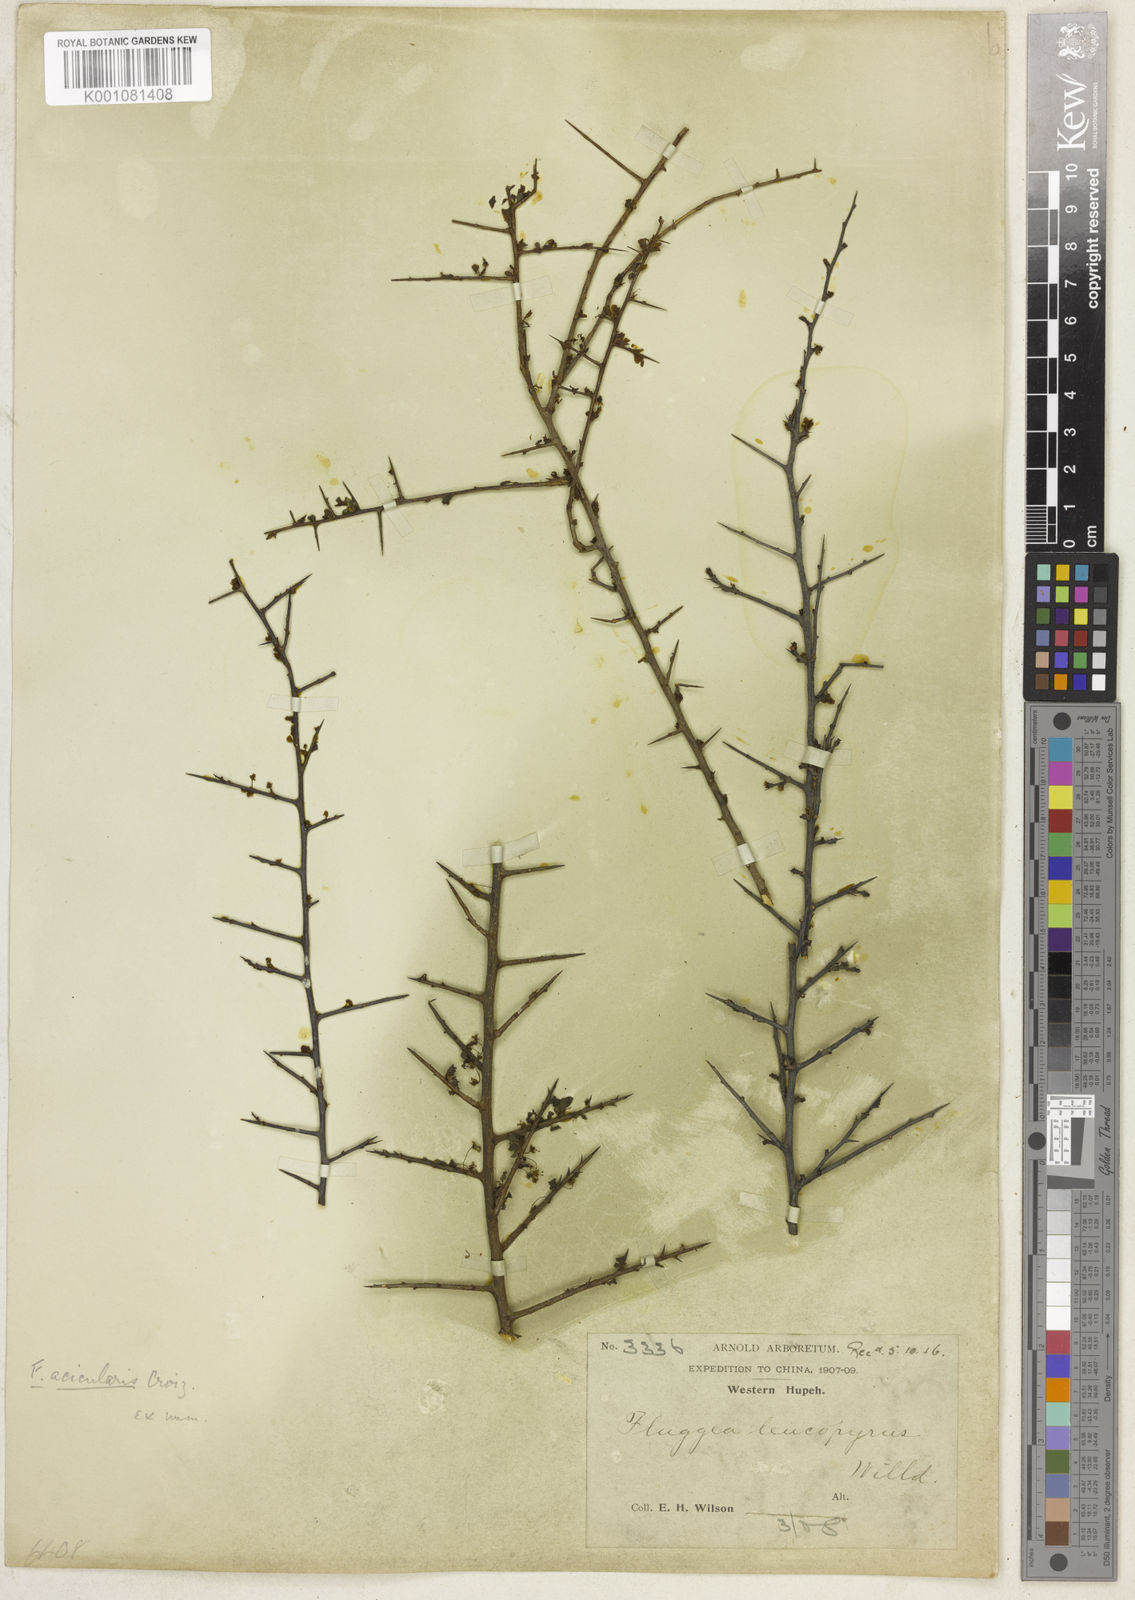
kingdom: Plantae
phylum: Tracheophyta
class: Magnoliopsida
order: Malpighiales
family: Phyllanthaceae
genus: Flueggea
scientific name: Flueggea acicularis
